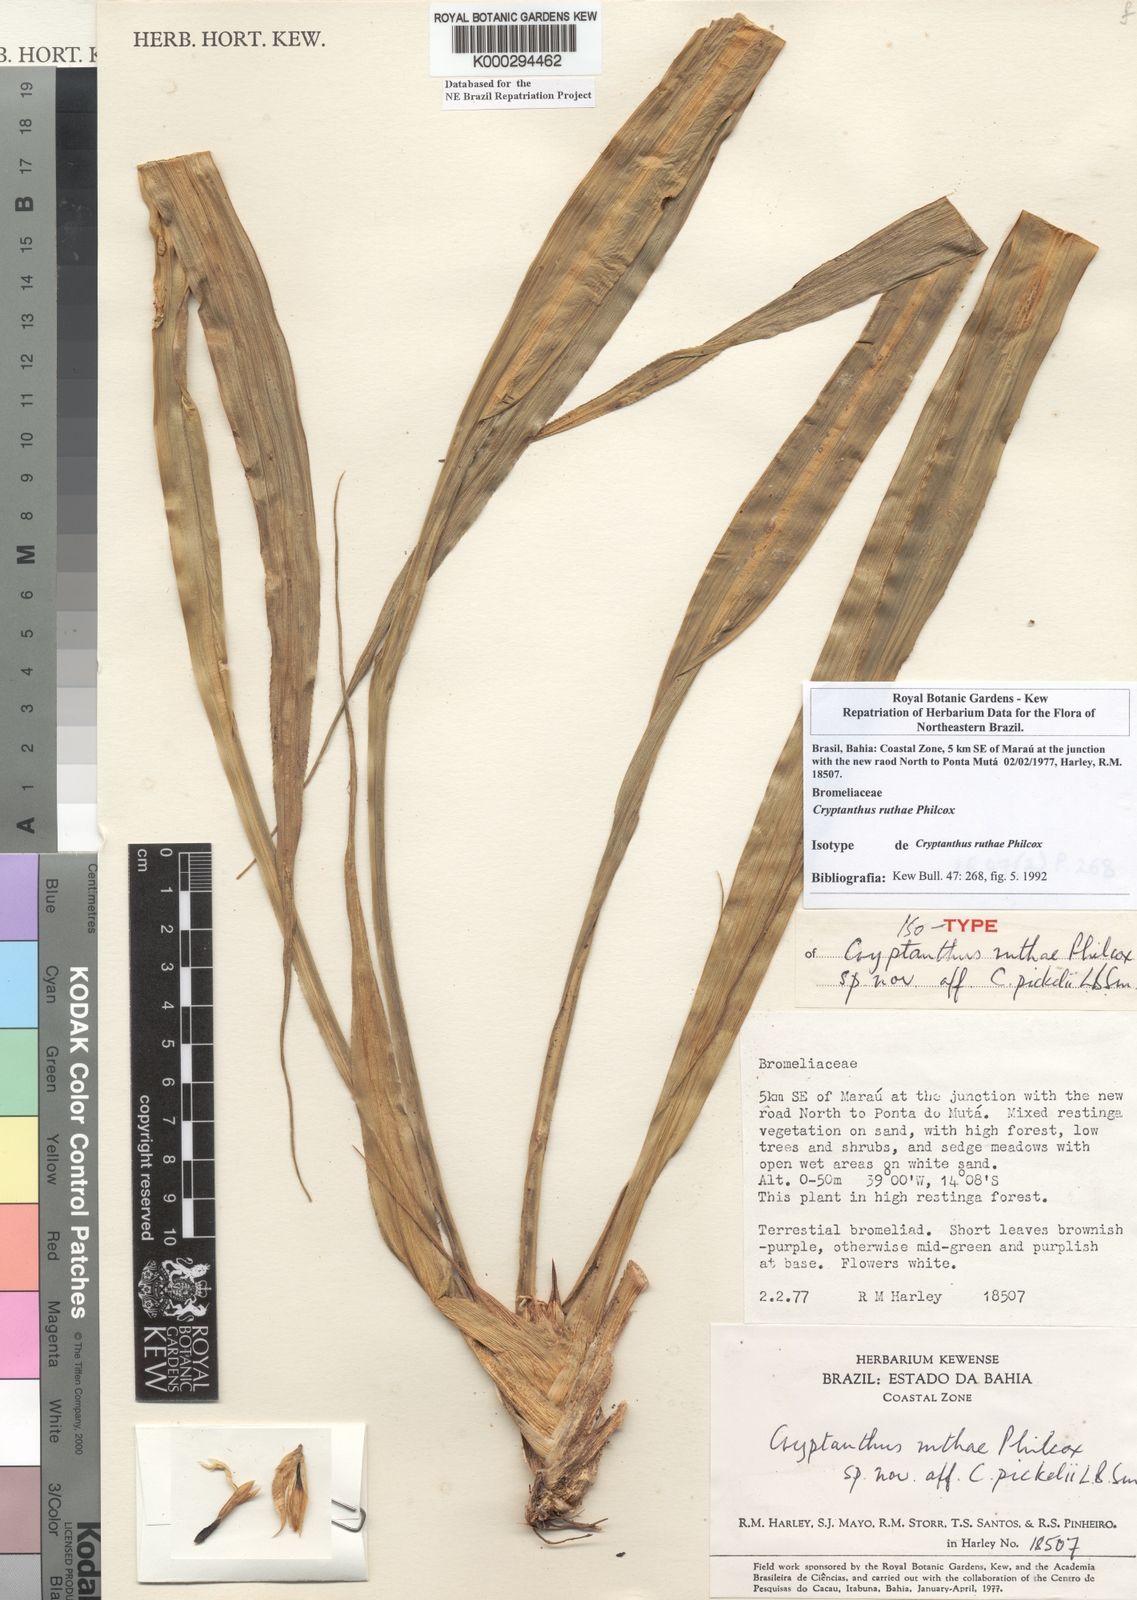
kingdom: Plantae
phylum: Tracheophyta
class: Liliopsida
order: Poales
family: Bromeliaceae
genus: Cryptanthus
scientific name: Cryptanthus pseudopetiolatus
